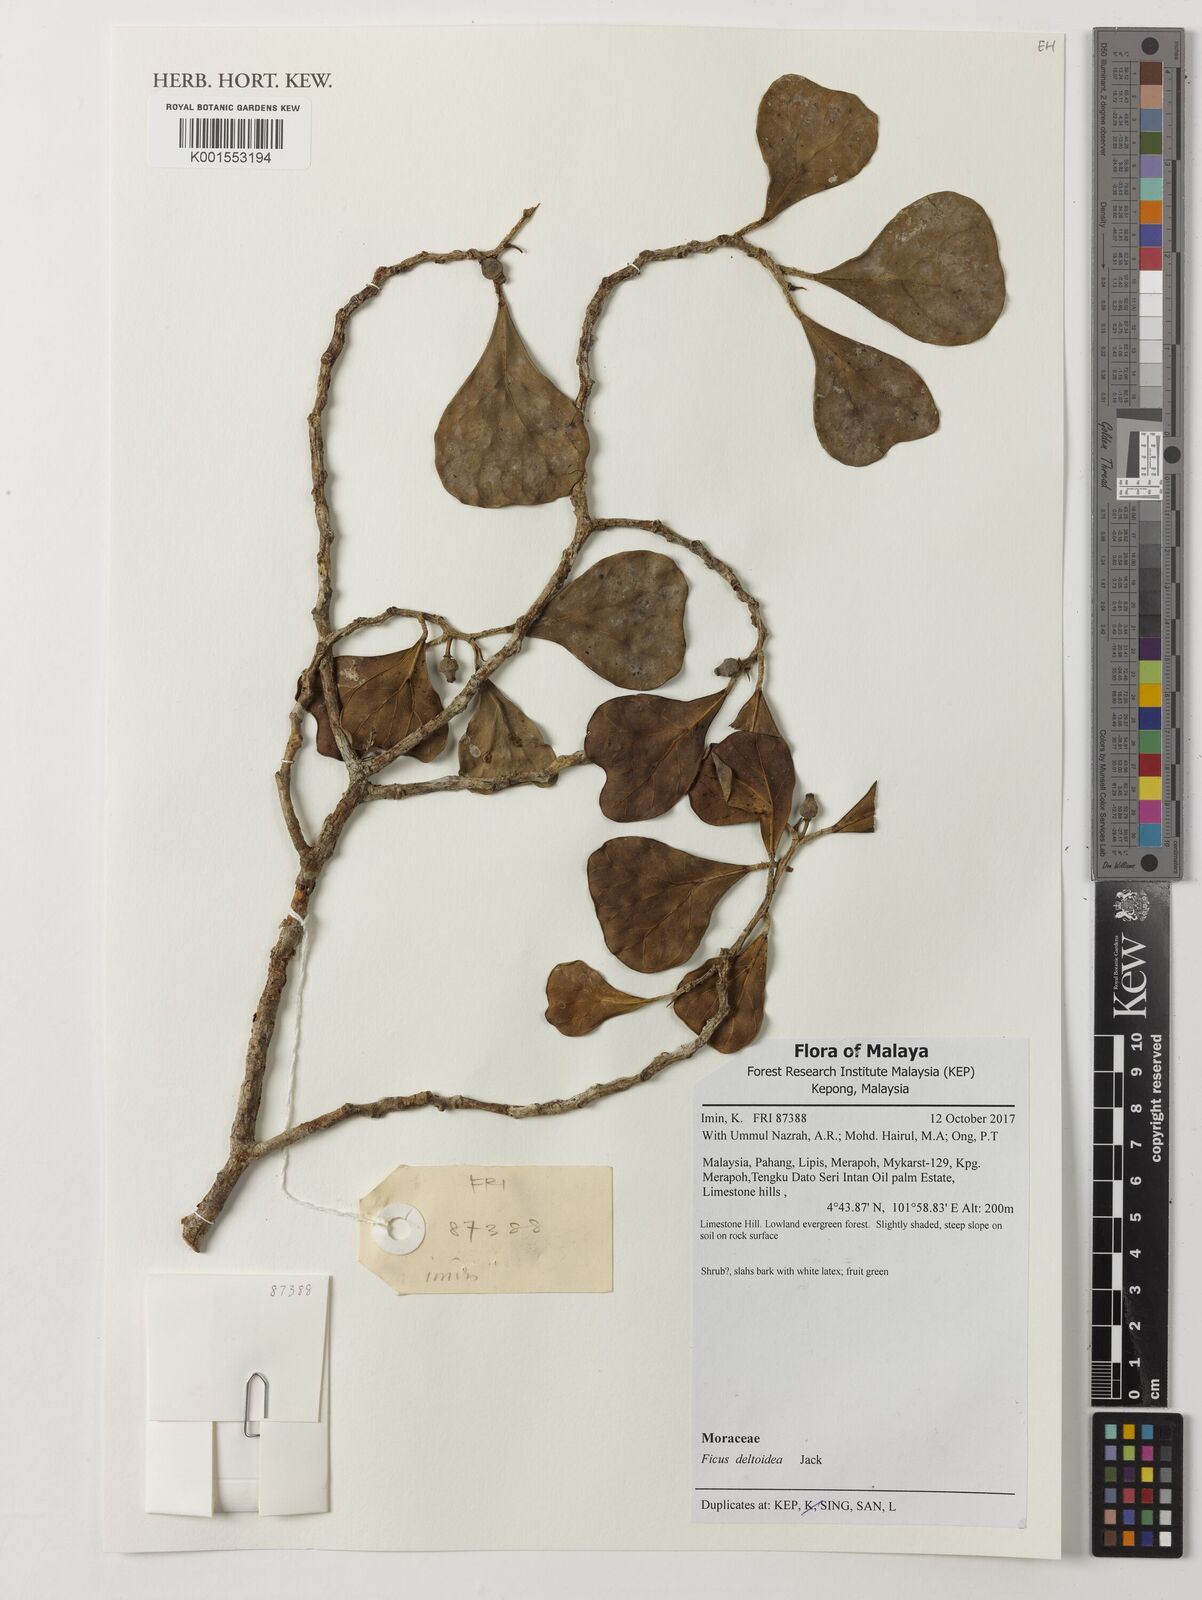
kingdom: Plantae
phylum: Tracheophyta
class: Magnoliopsida
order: Rosales
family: Moraceae
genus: Ficus
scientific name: Ficus deltoidea
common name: Mistletoe fig
